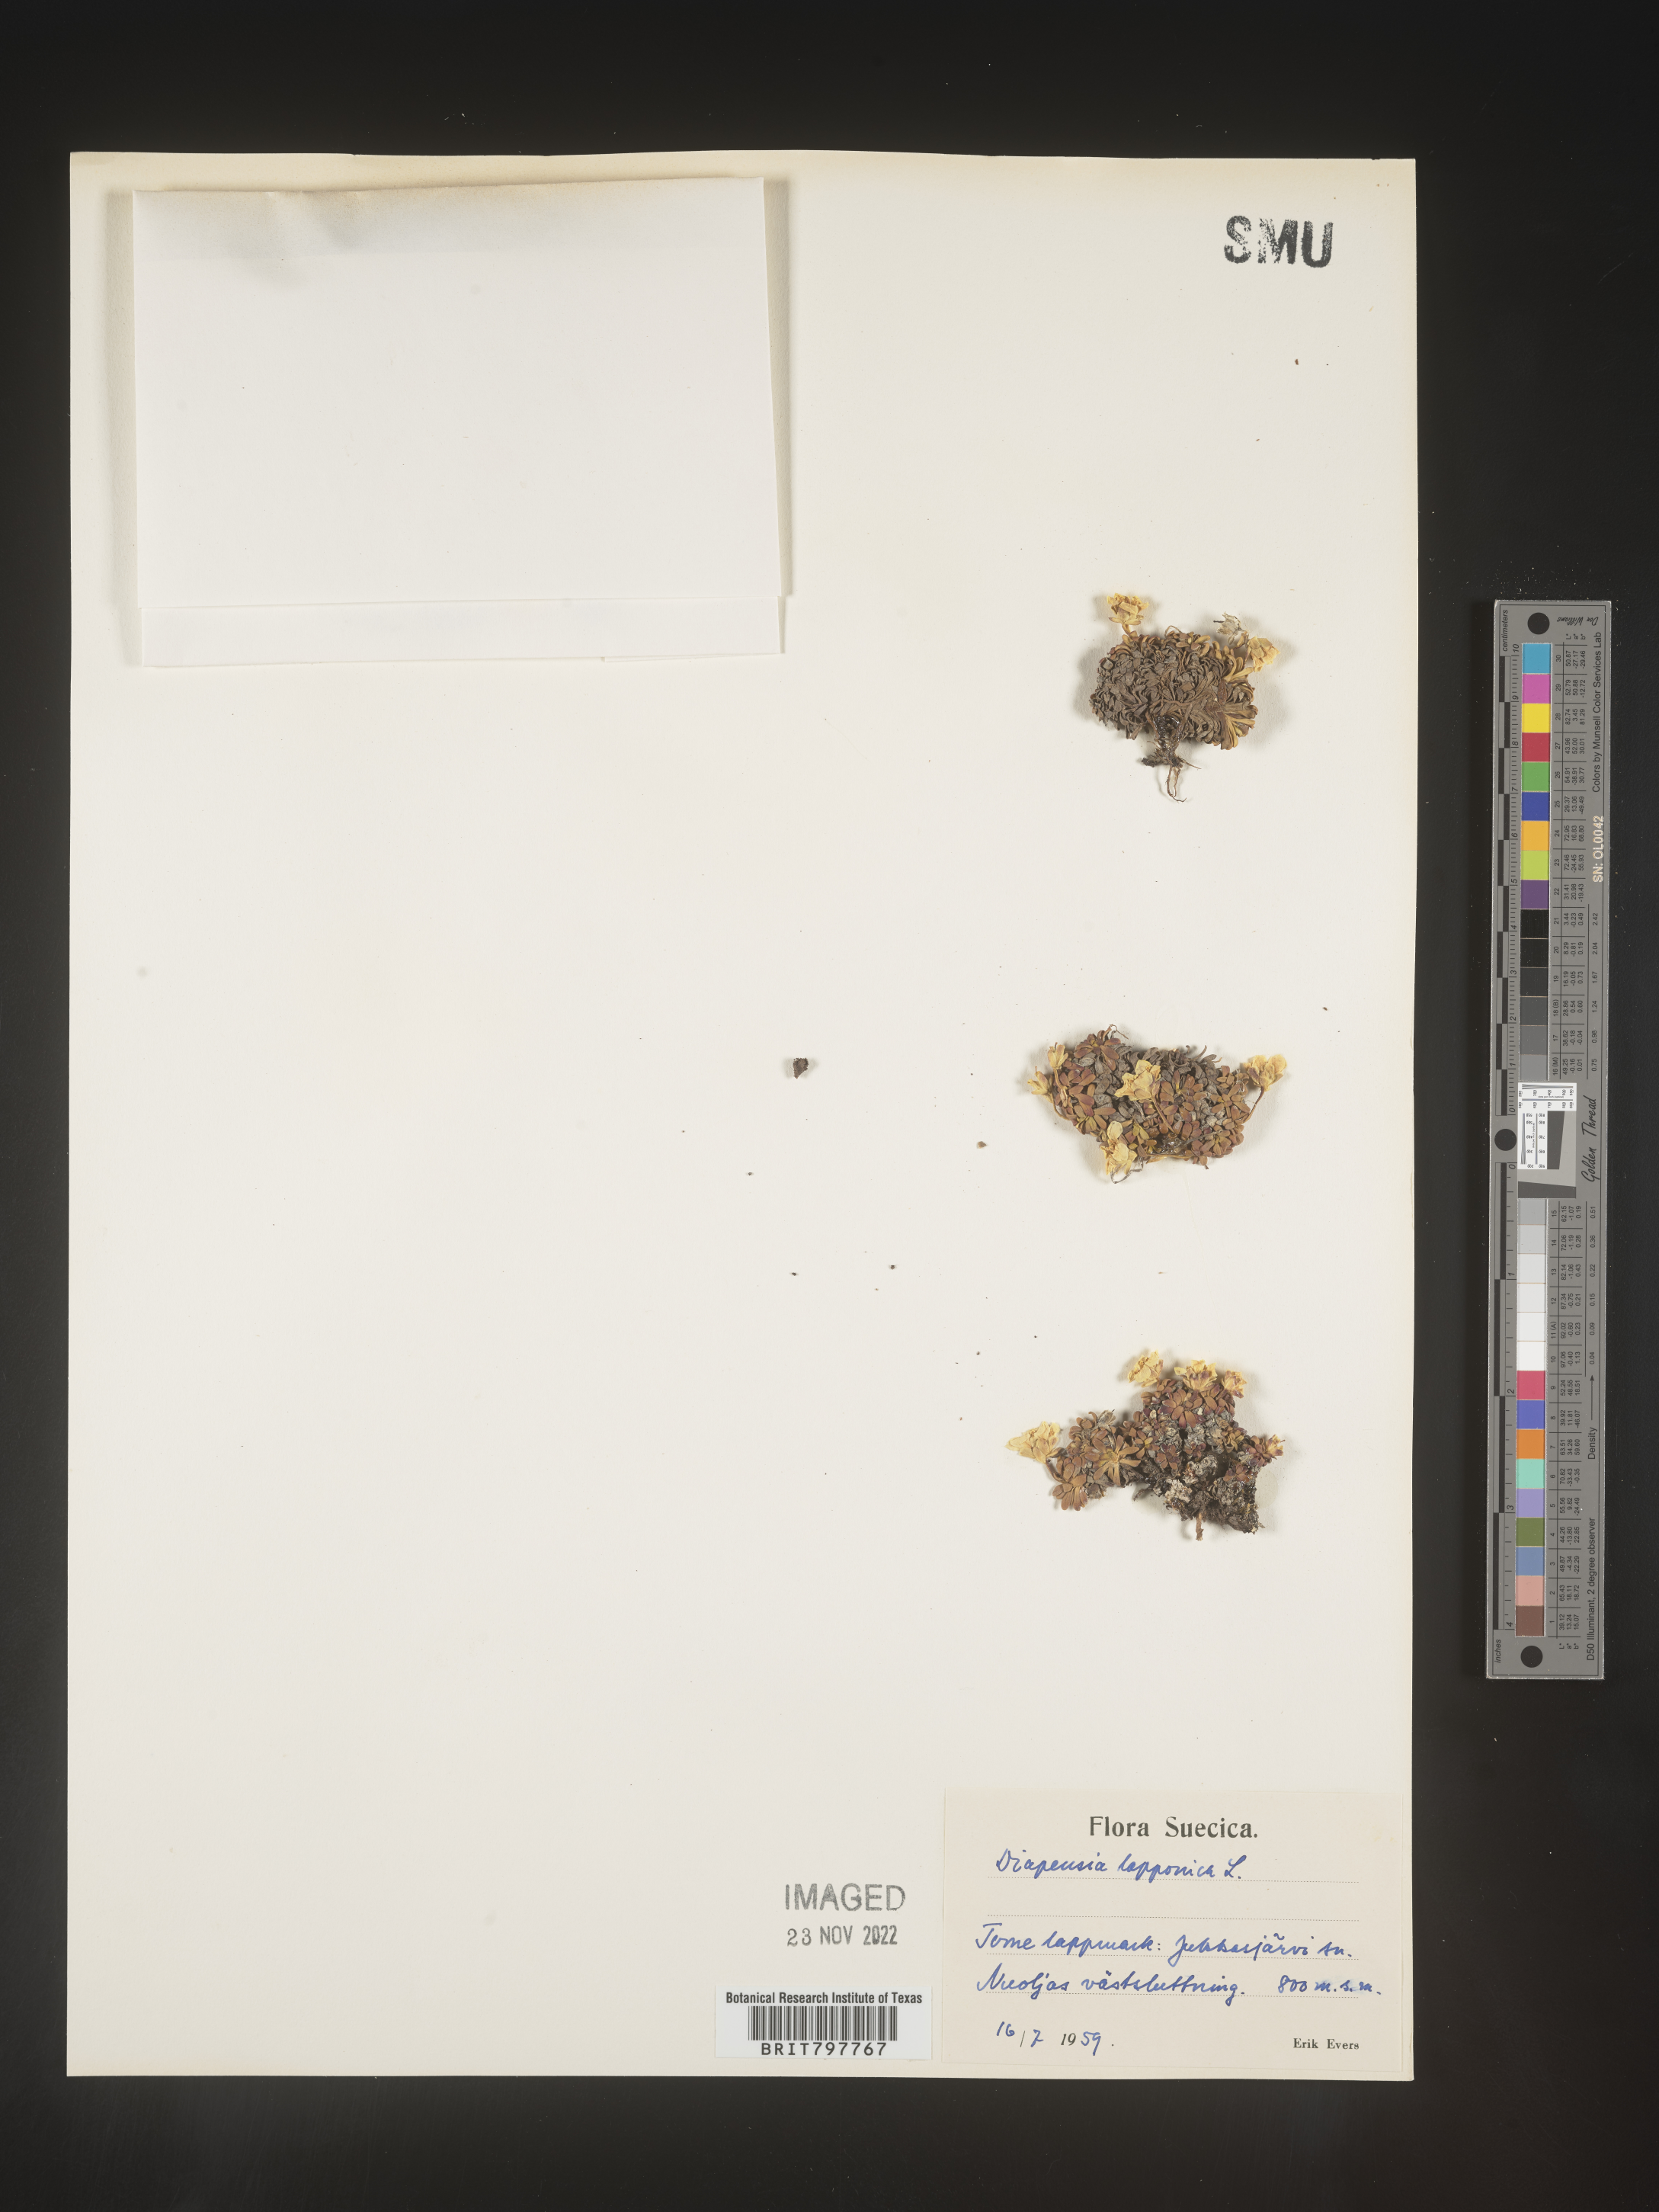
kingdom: Plantae
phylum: Tracheophyta
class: Magnoliopsida
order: Ericales
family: Diapensiaceae
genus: Diapensia
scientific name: Diapensia
